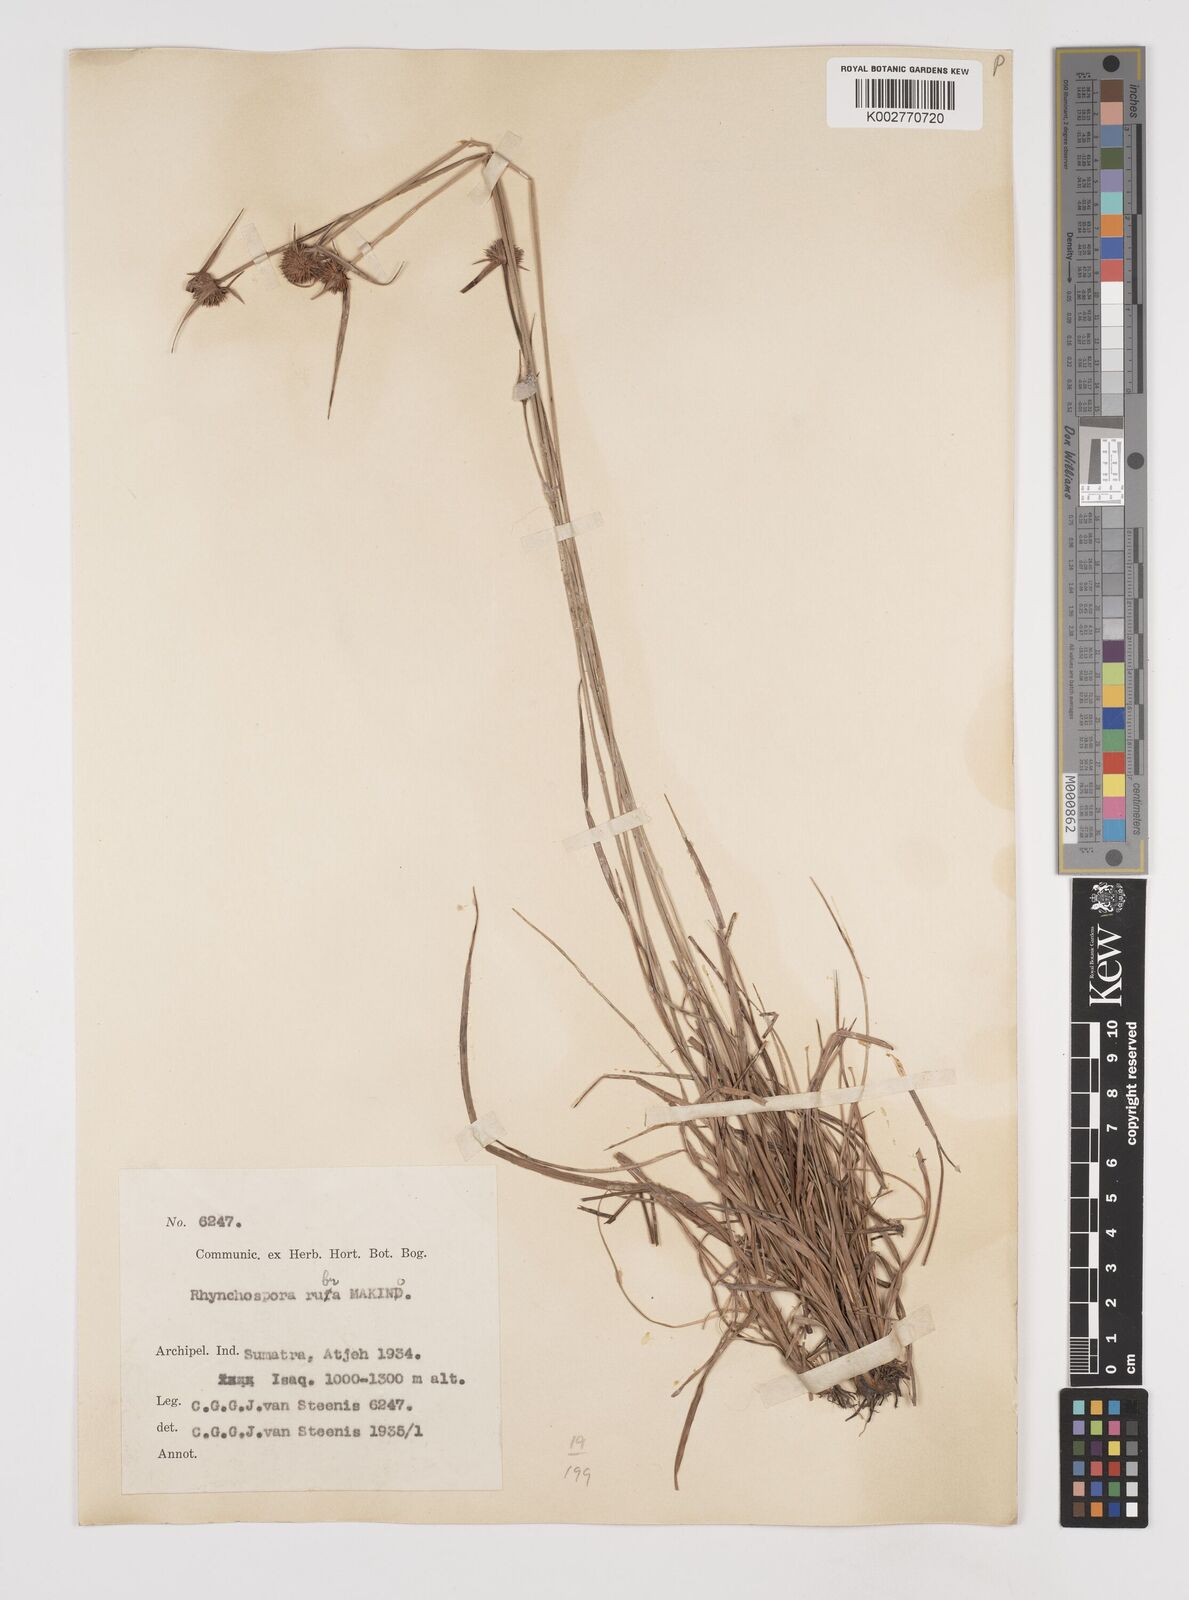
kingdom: Plantae
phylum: Tracheophyta
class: Liliopsida
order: Poales
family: Cyperaceae
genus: Rhynchospora
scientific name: Rhynchospora rubra
